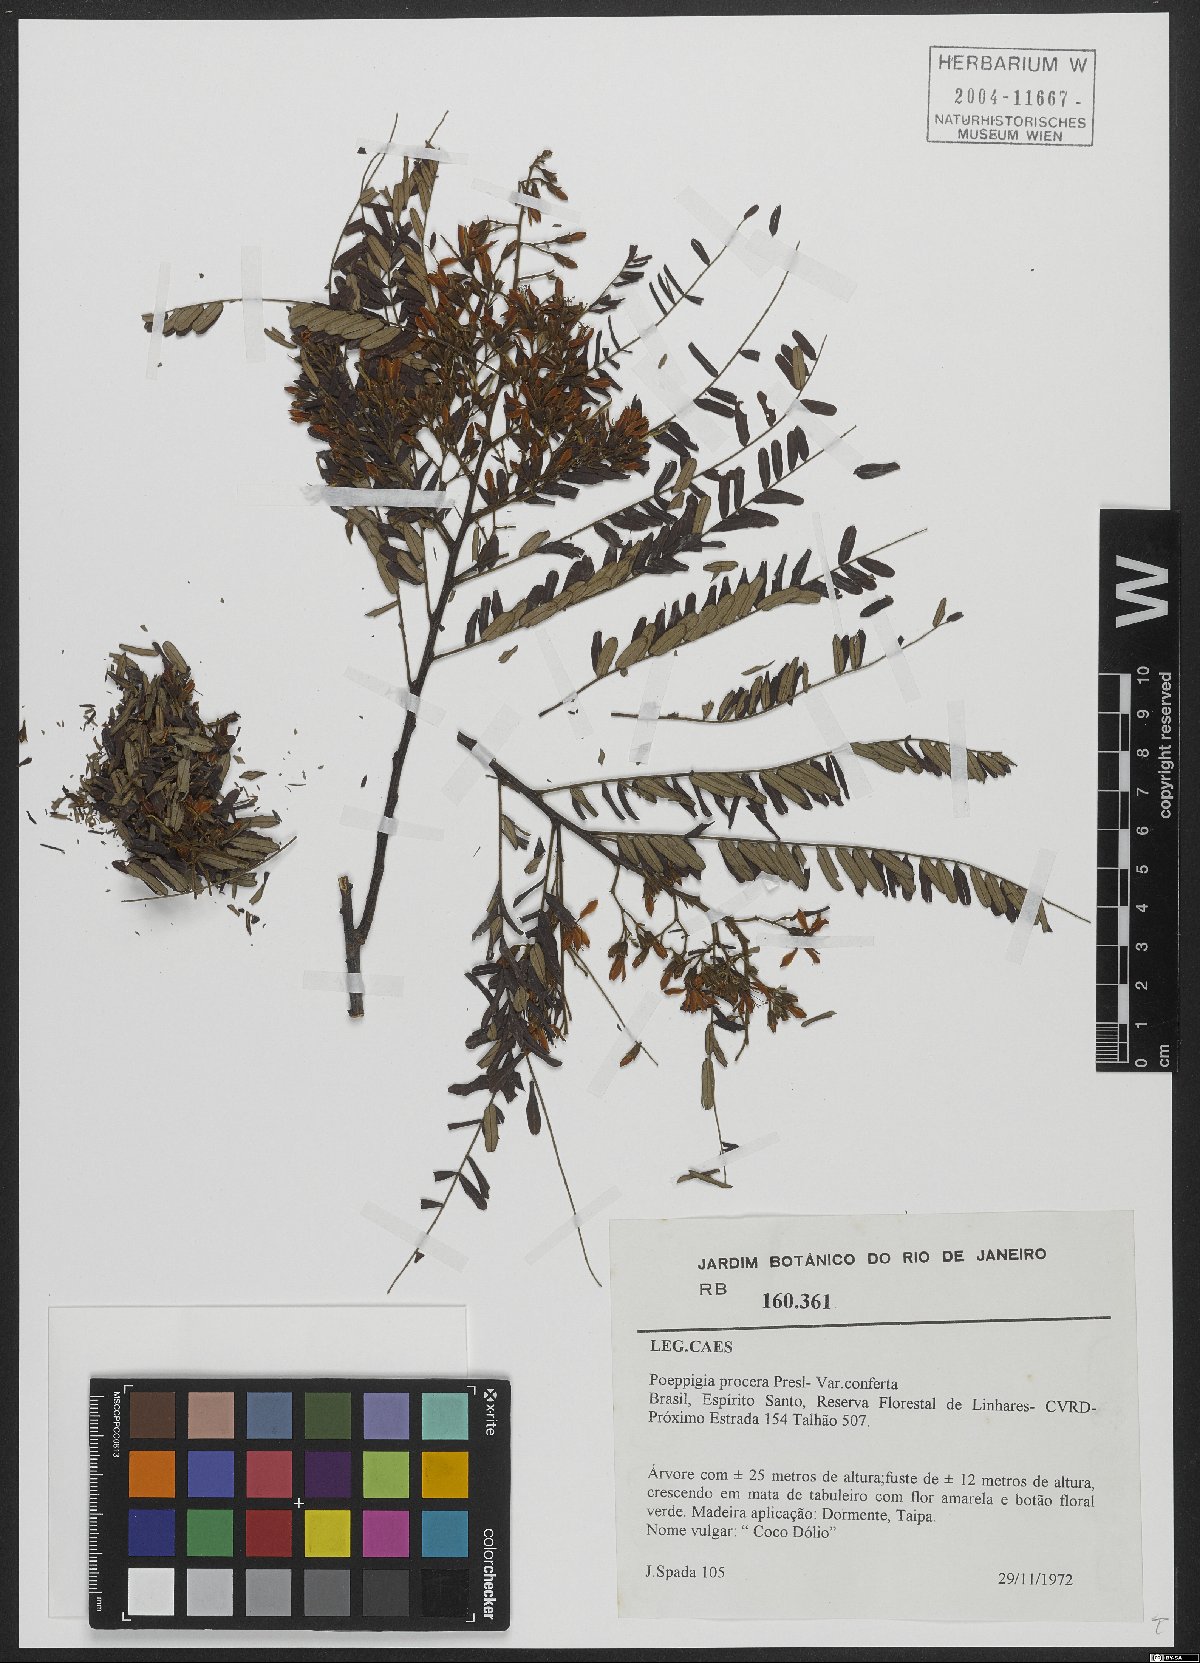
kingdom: Plantae
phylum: Tracheophyta
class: Magnoliopsida
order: Fabales
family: Fabaceae
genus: Poeppigia
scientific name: Poeppigia procera
